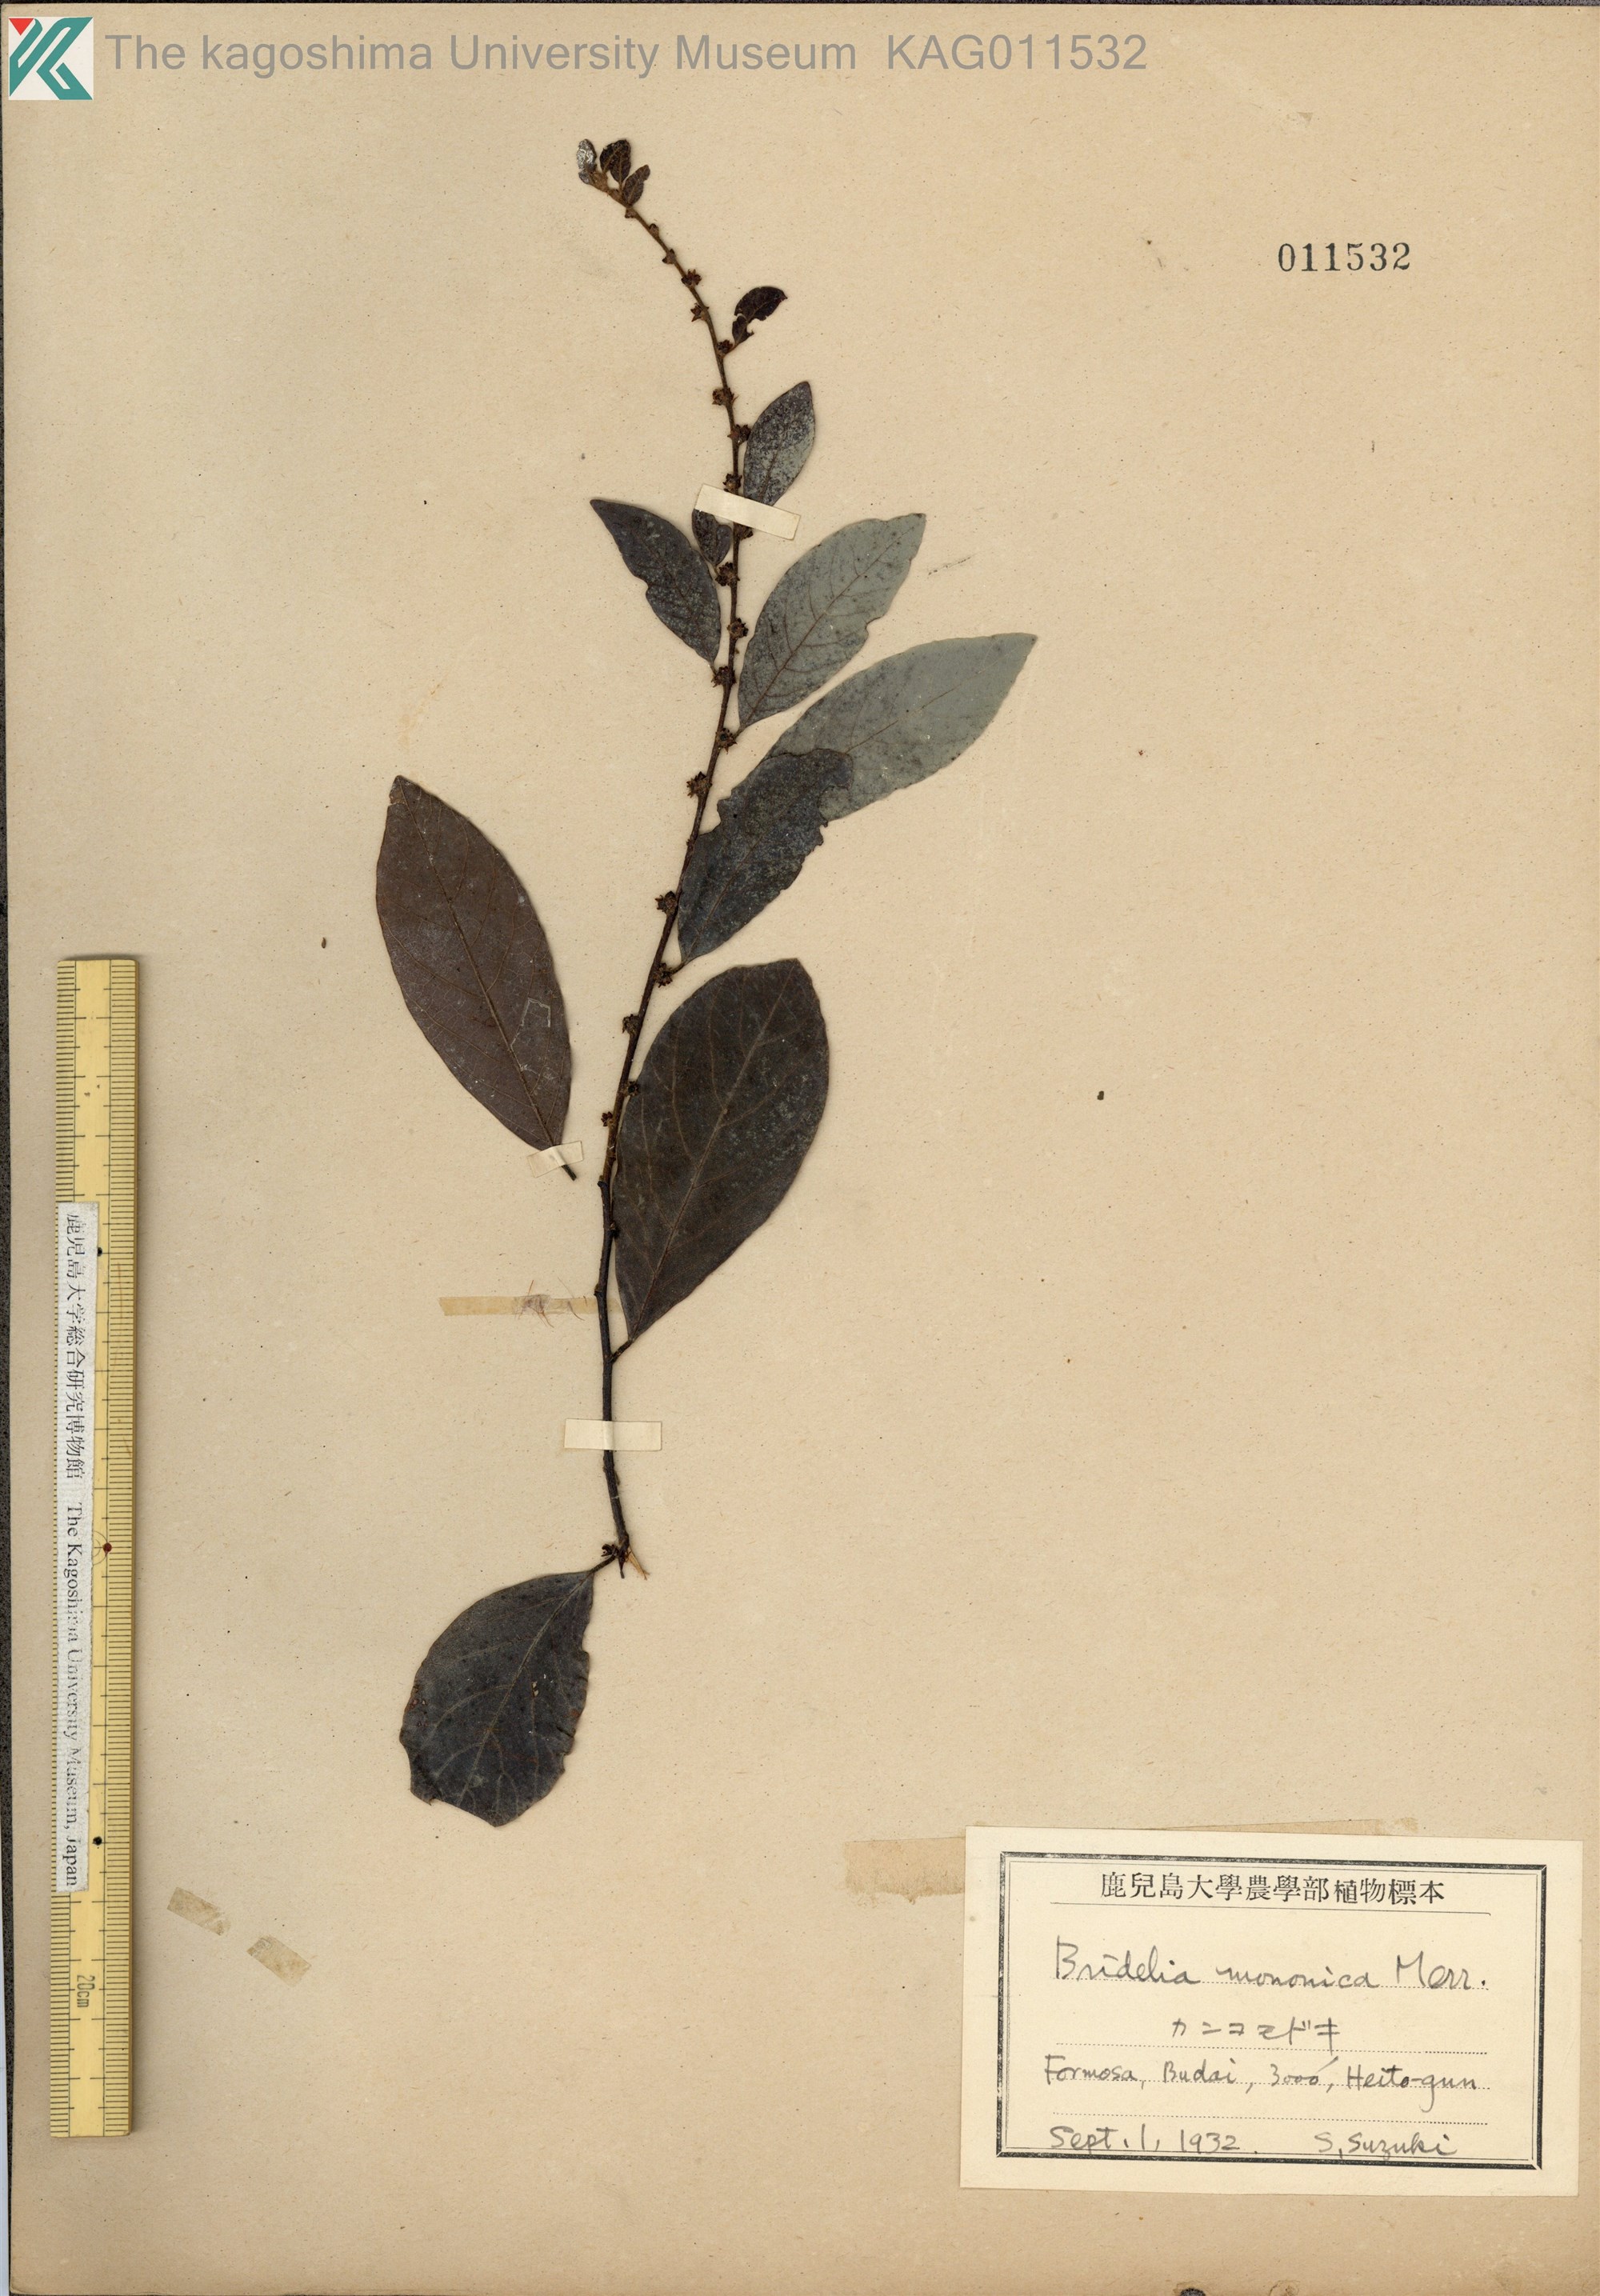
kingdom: Plantae
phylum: Tracheophyta
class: Magnoliopsida
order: Malpighiales
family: Phyllanthaceae
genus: Cleistanthus
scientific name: Cleistanthus monoicus
